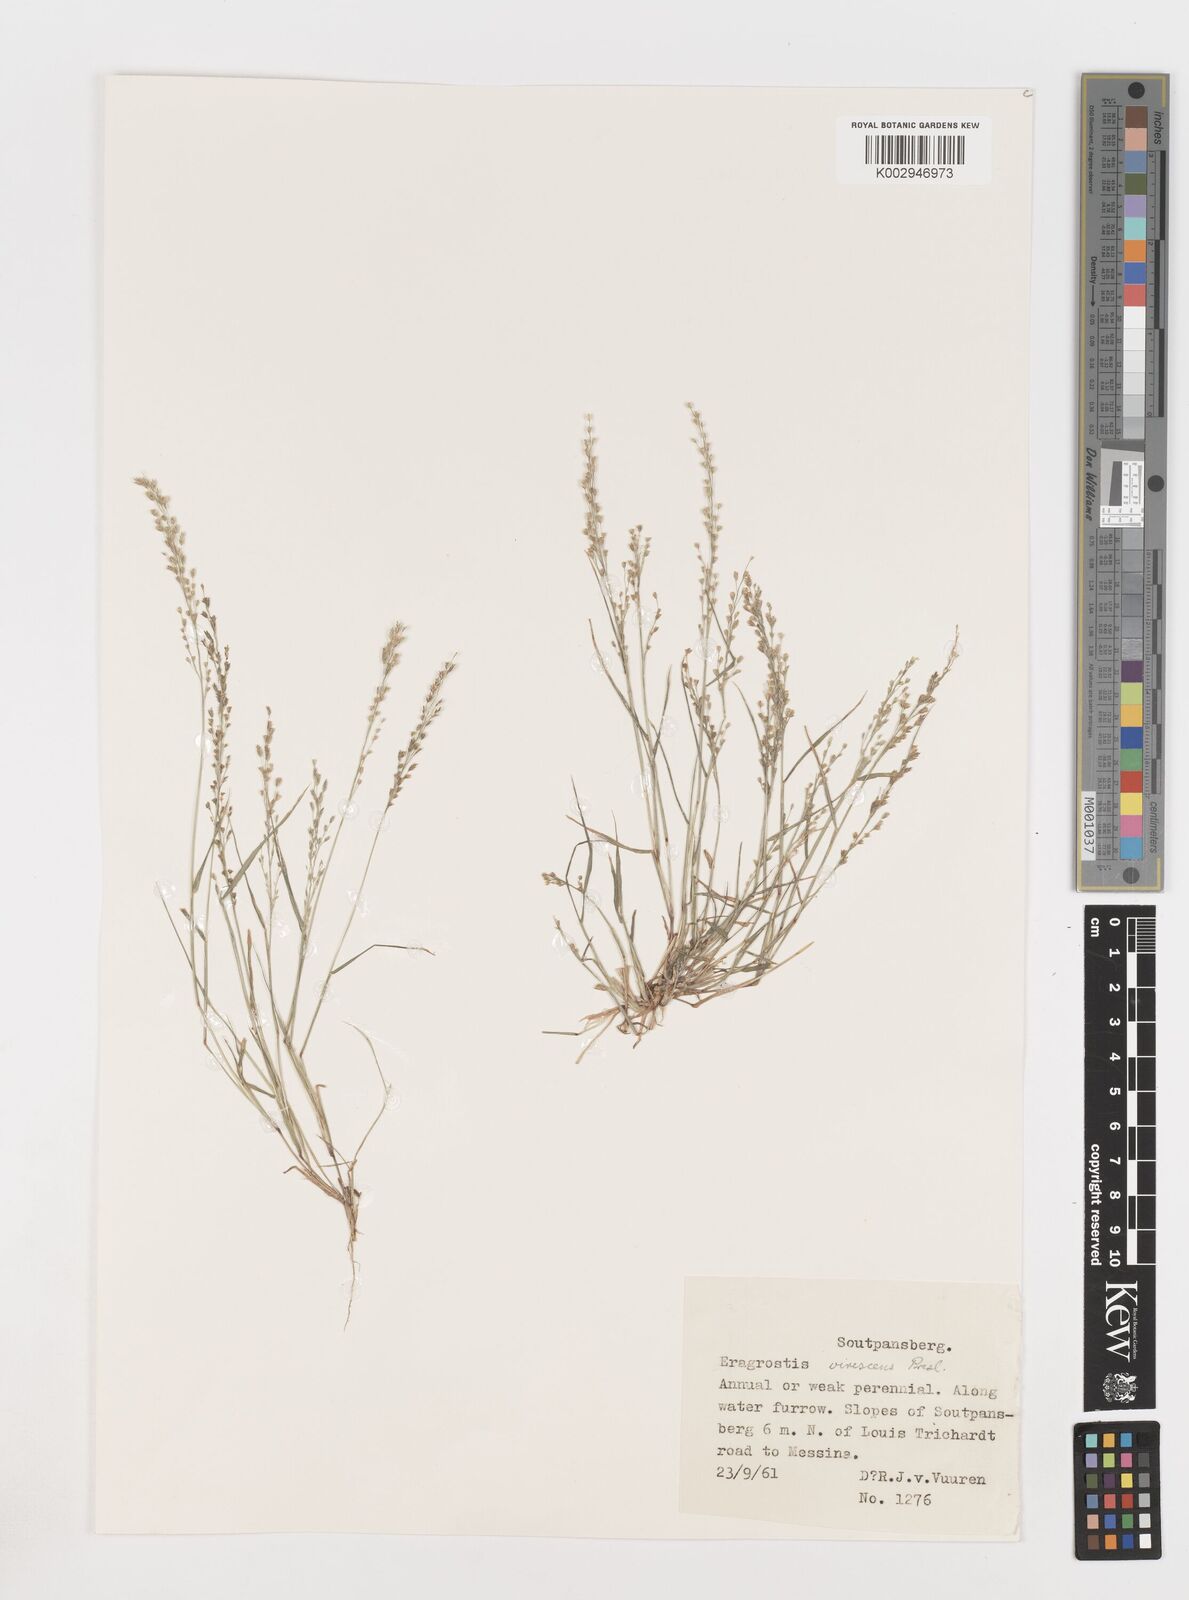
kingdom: Plantae
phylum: Tracheophyta
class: Liliopsida
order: Poales
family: Poaceae
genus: Eragrostis
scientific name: Eragrostis
